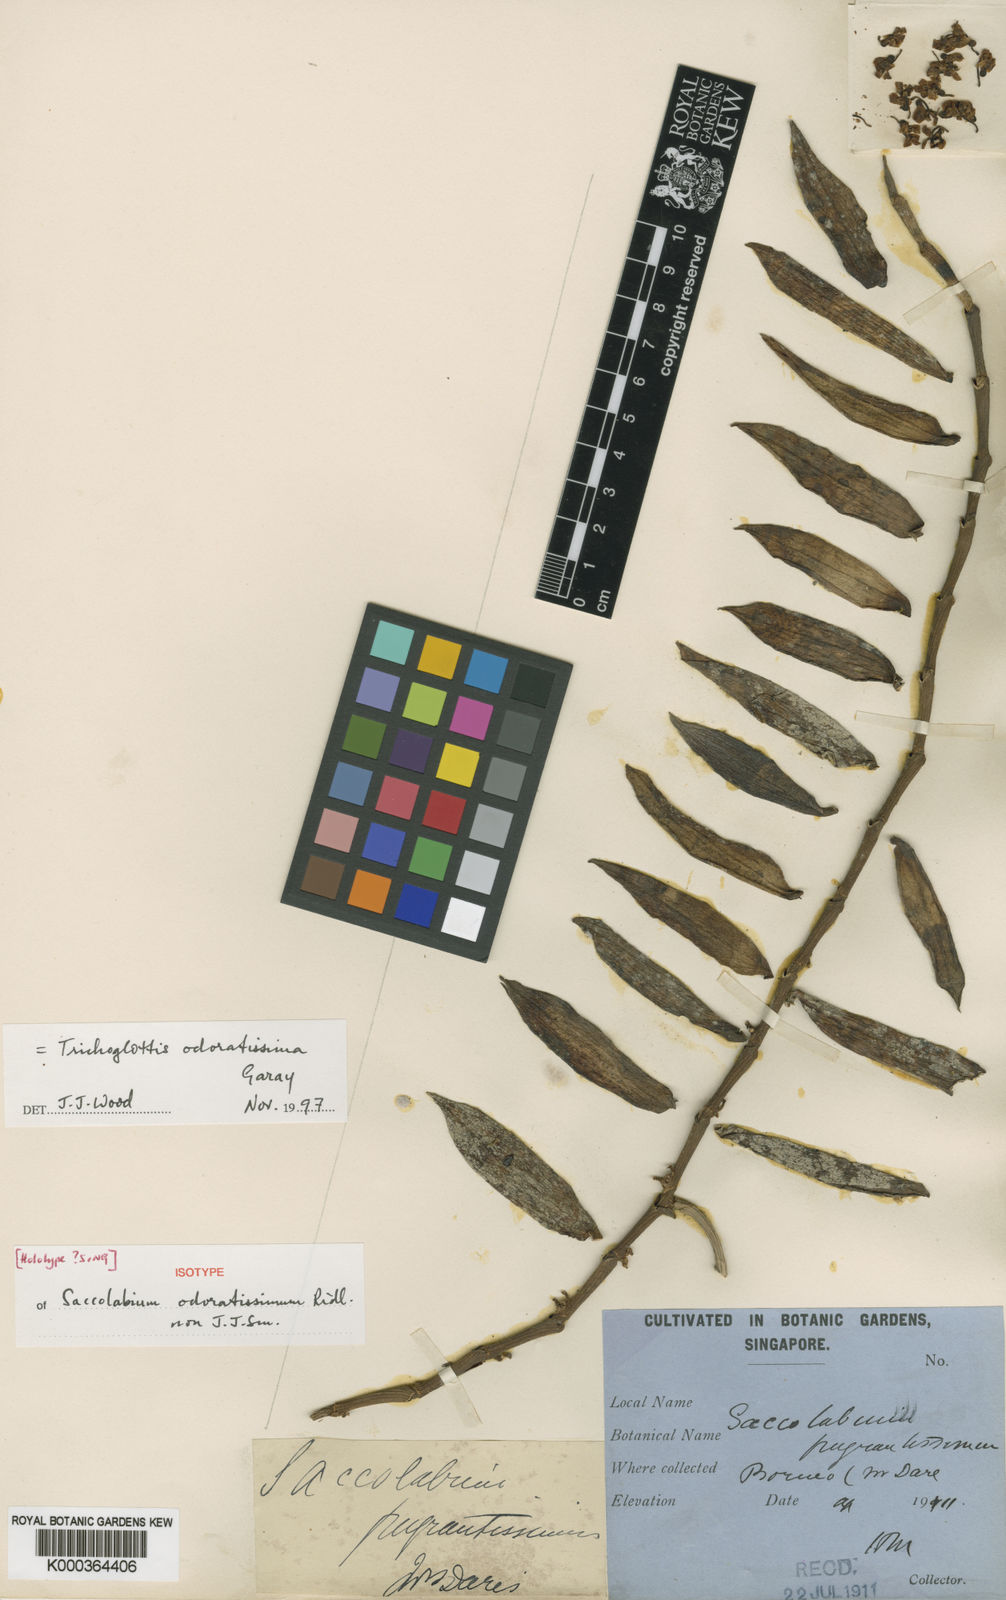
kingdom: Plantae
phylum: Tracheophyta
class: Liliopsida
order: Asparagales
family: Orchidaceae
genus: Trichoglottis
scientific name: Trichoglottis odoratissima
